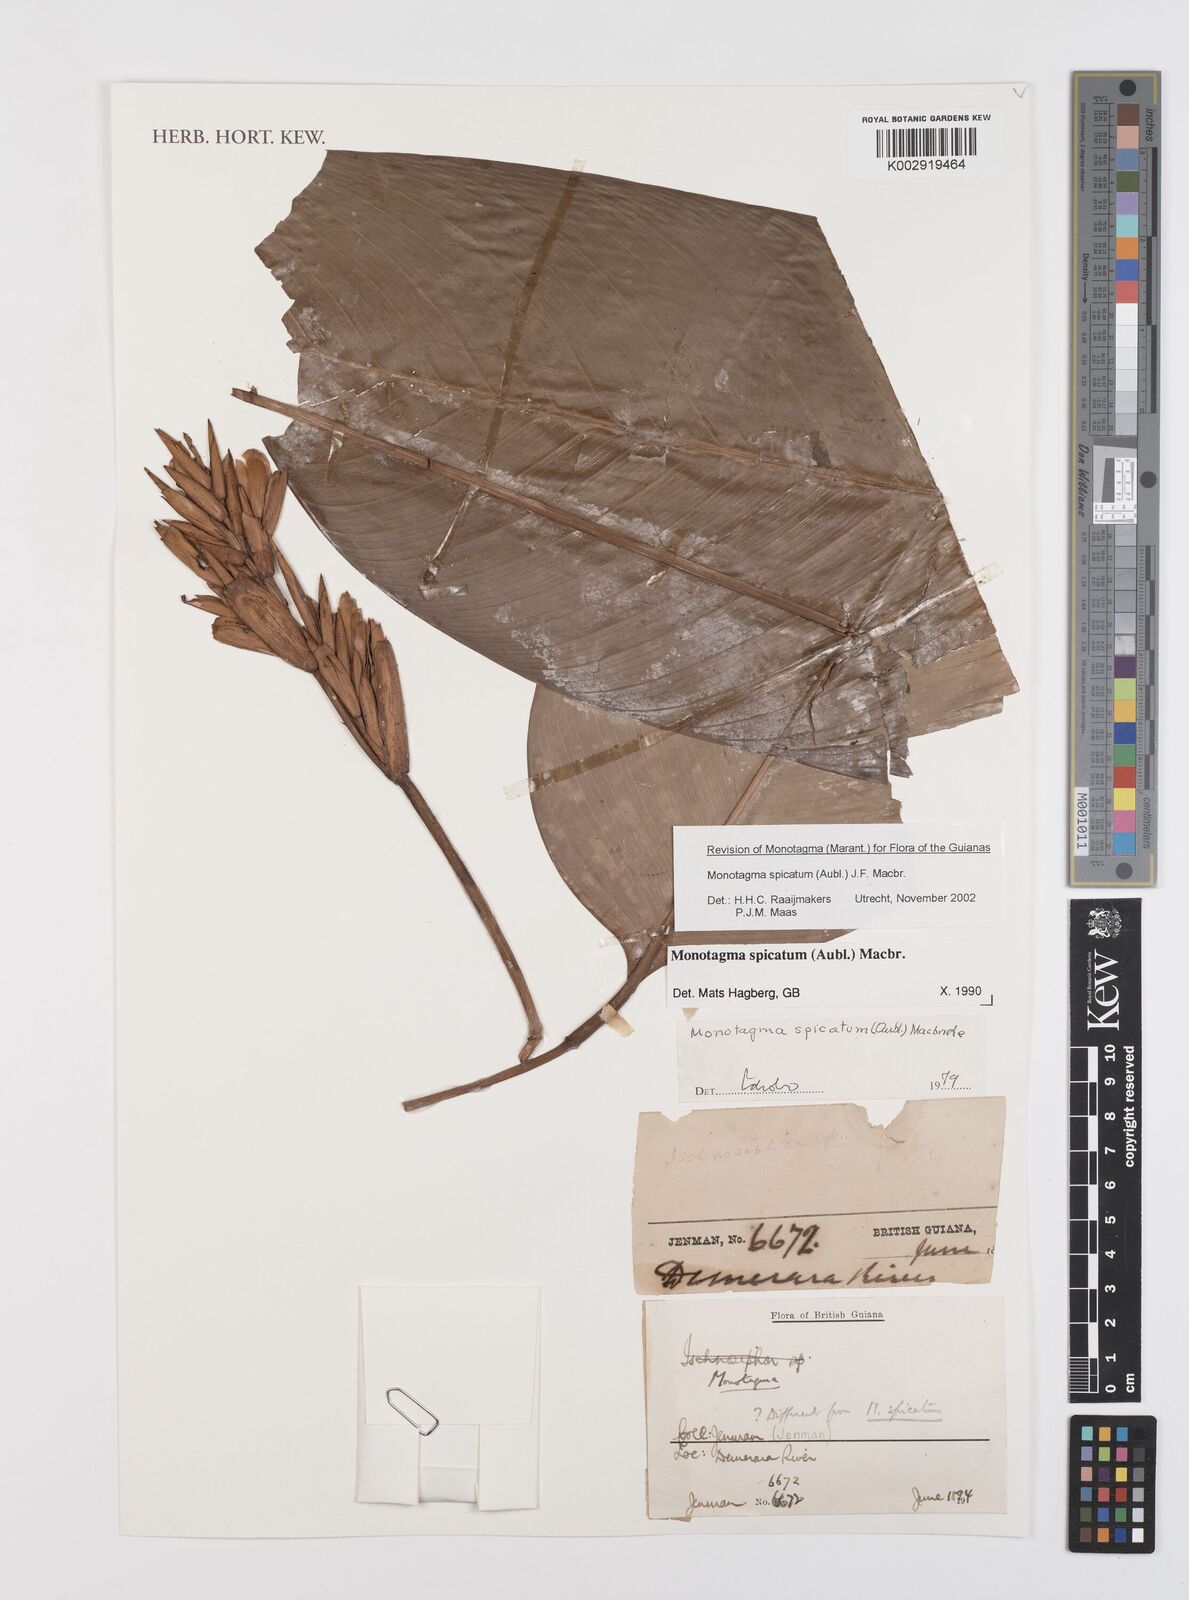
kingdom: Plantae
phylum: Tracheophyta
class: Liliopsida
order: Zingiberales
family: Marantaceae
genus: Monotagma
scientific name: Monotagma spicatum
